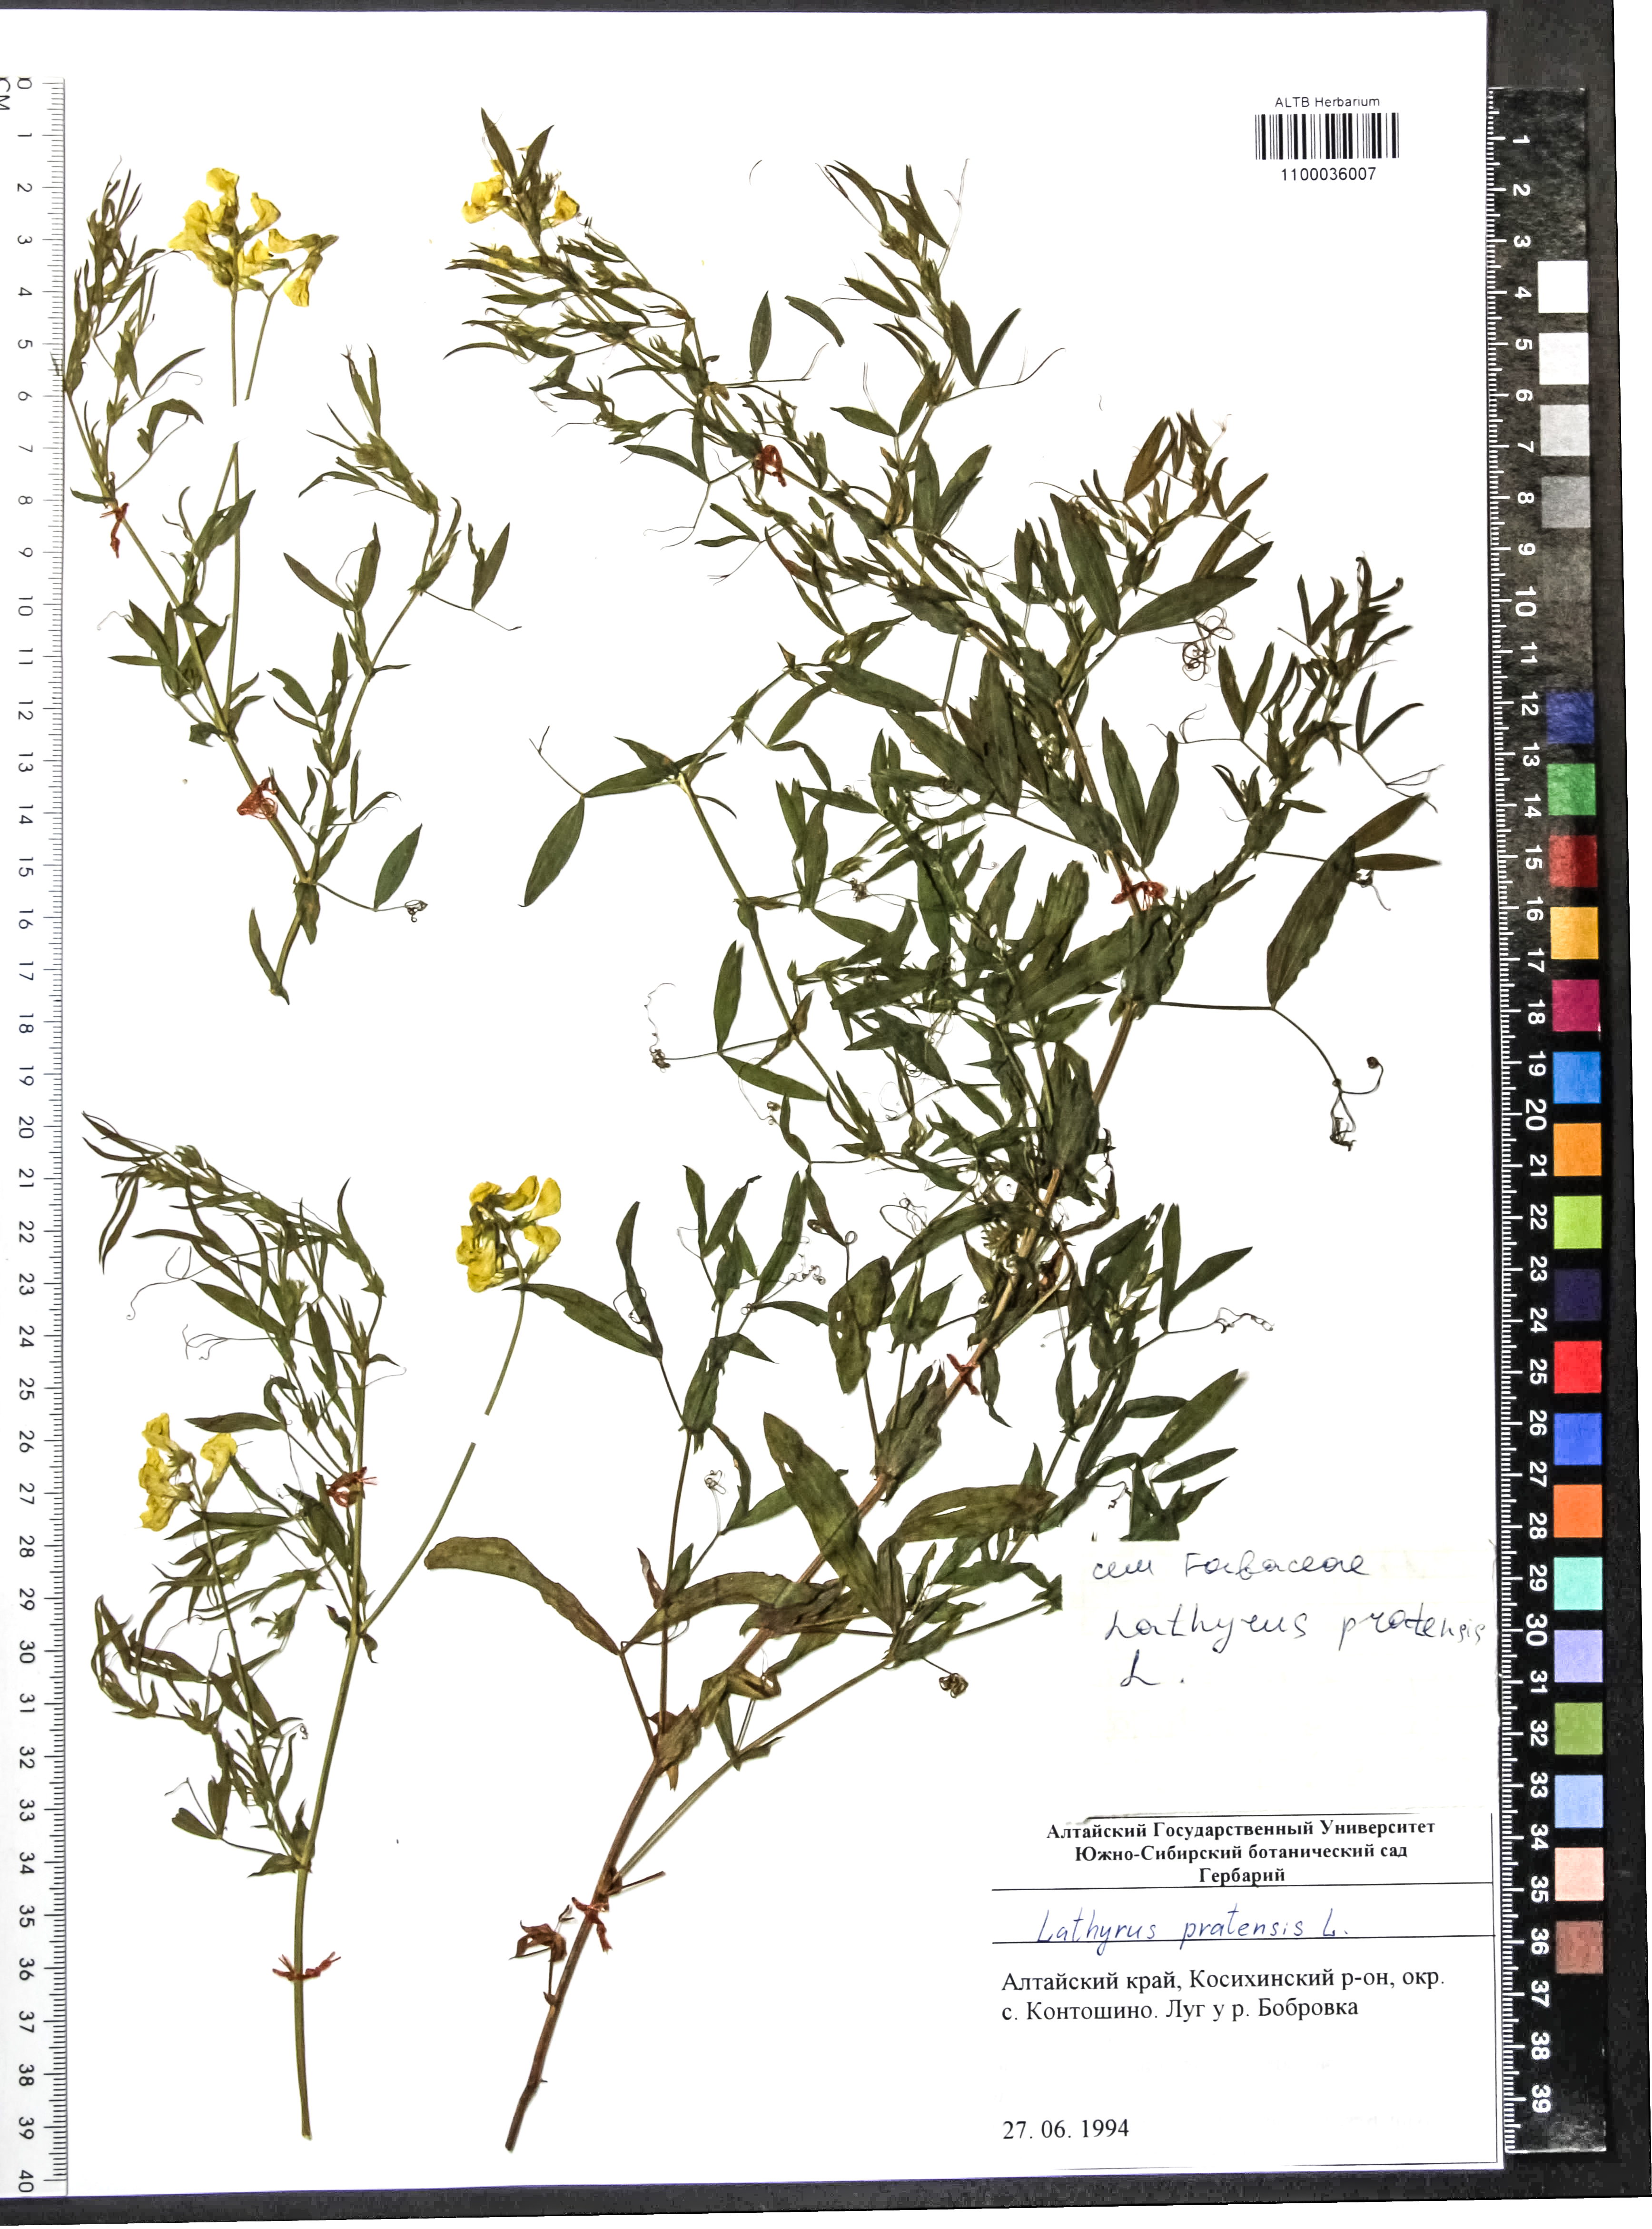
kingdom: Plantae
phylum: Tracheophyta
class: Magnoliopsida
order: Fabales
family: Fabaceae
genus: Lathyrus
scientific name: Lathyrus pratensis
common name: Meadow vetchling
